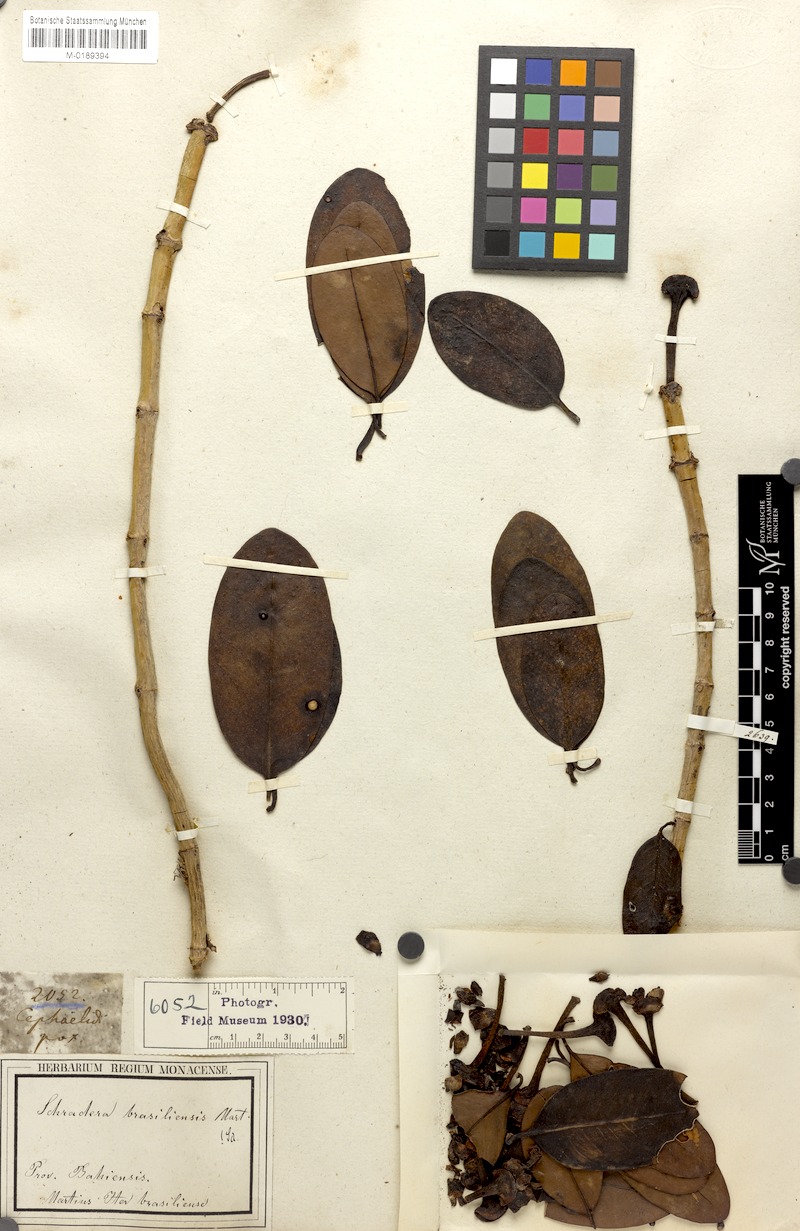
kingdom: Plantae
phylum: Tracheophyta
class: Magnoliopsida
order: Gentianales
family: Rubiaceae
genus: Schradera
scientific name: Schradera involucrata
